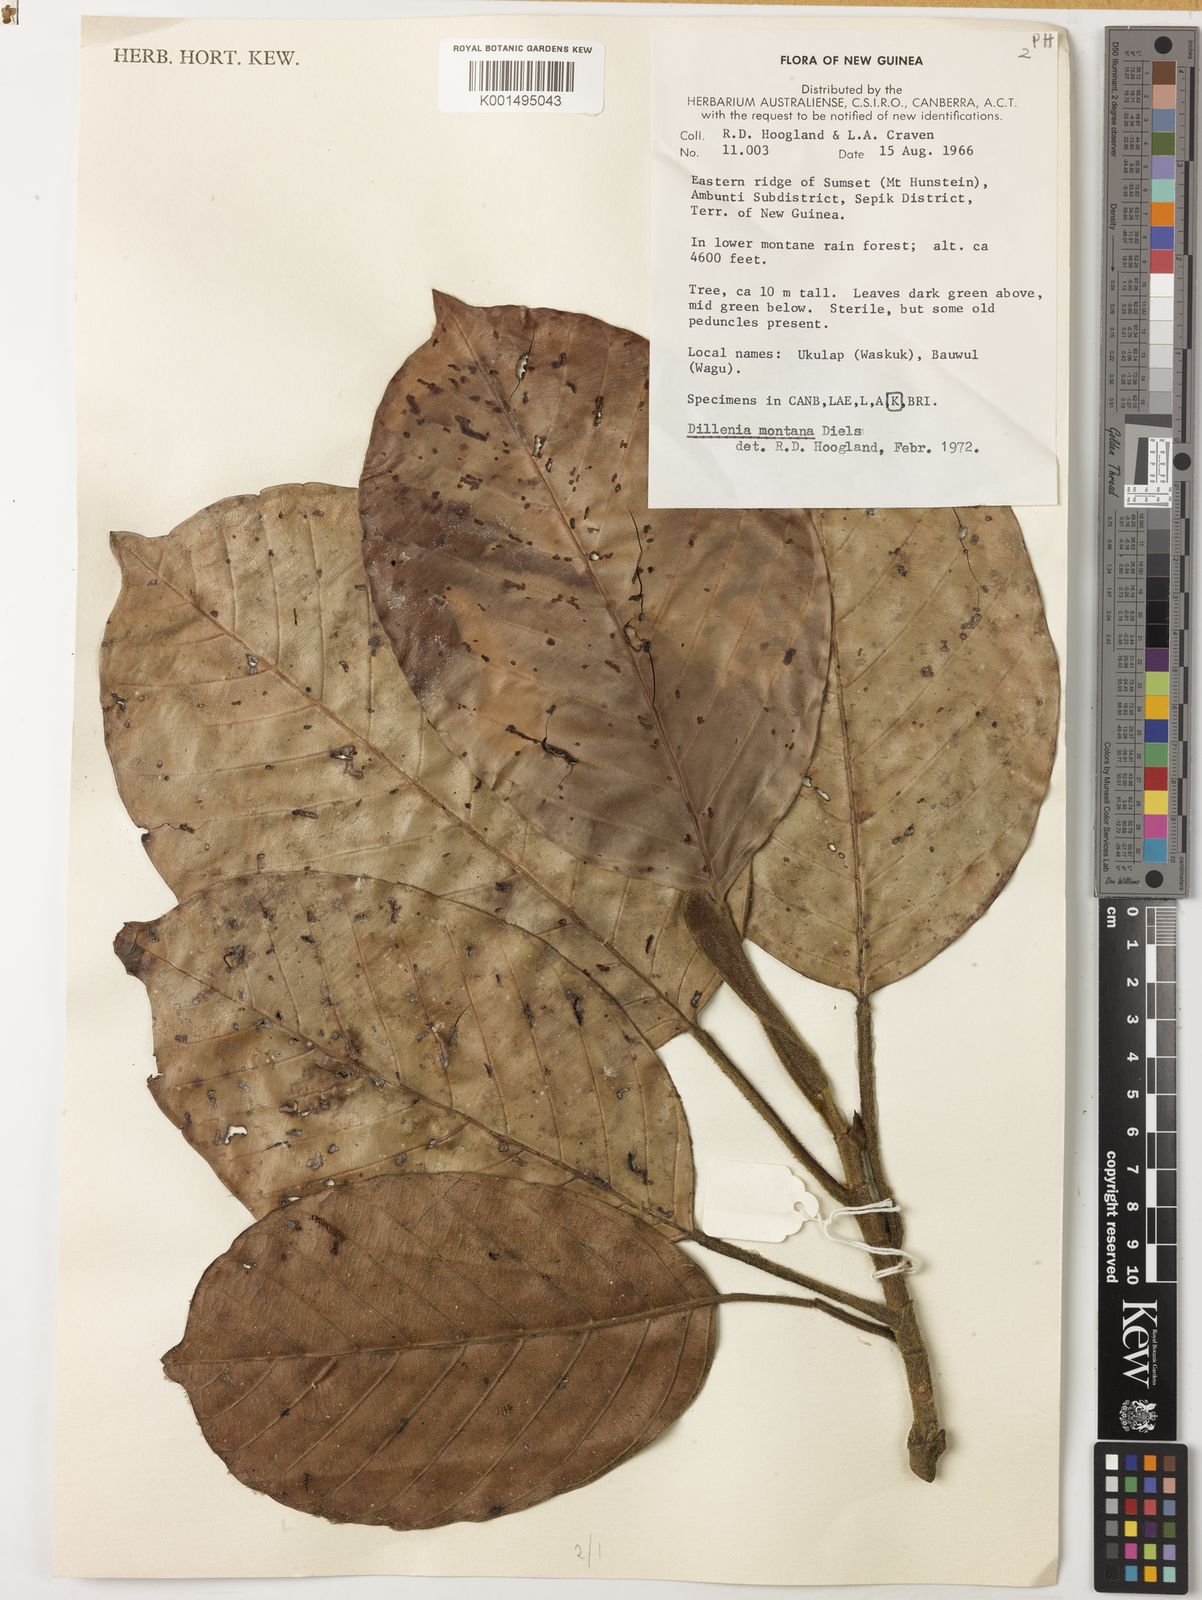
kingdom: Plantae
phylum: Tracheophyta
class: Magnoliopsida
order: Dilleniales
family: Dilleniaceae
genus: Dillenia
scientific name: Dillenia montana
